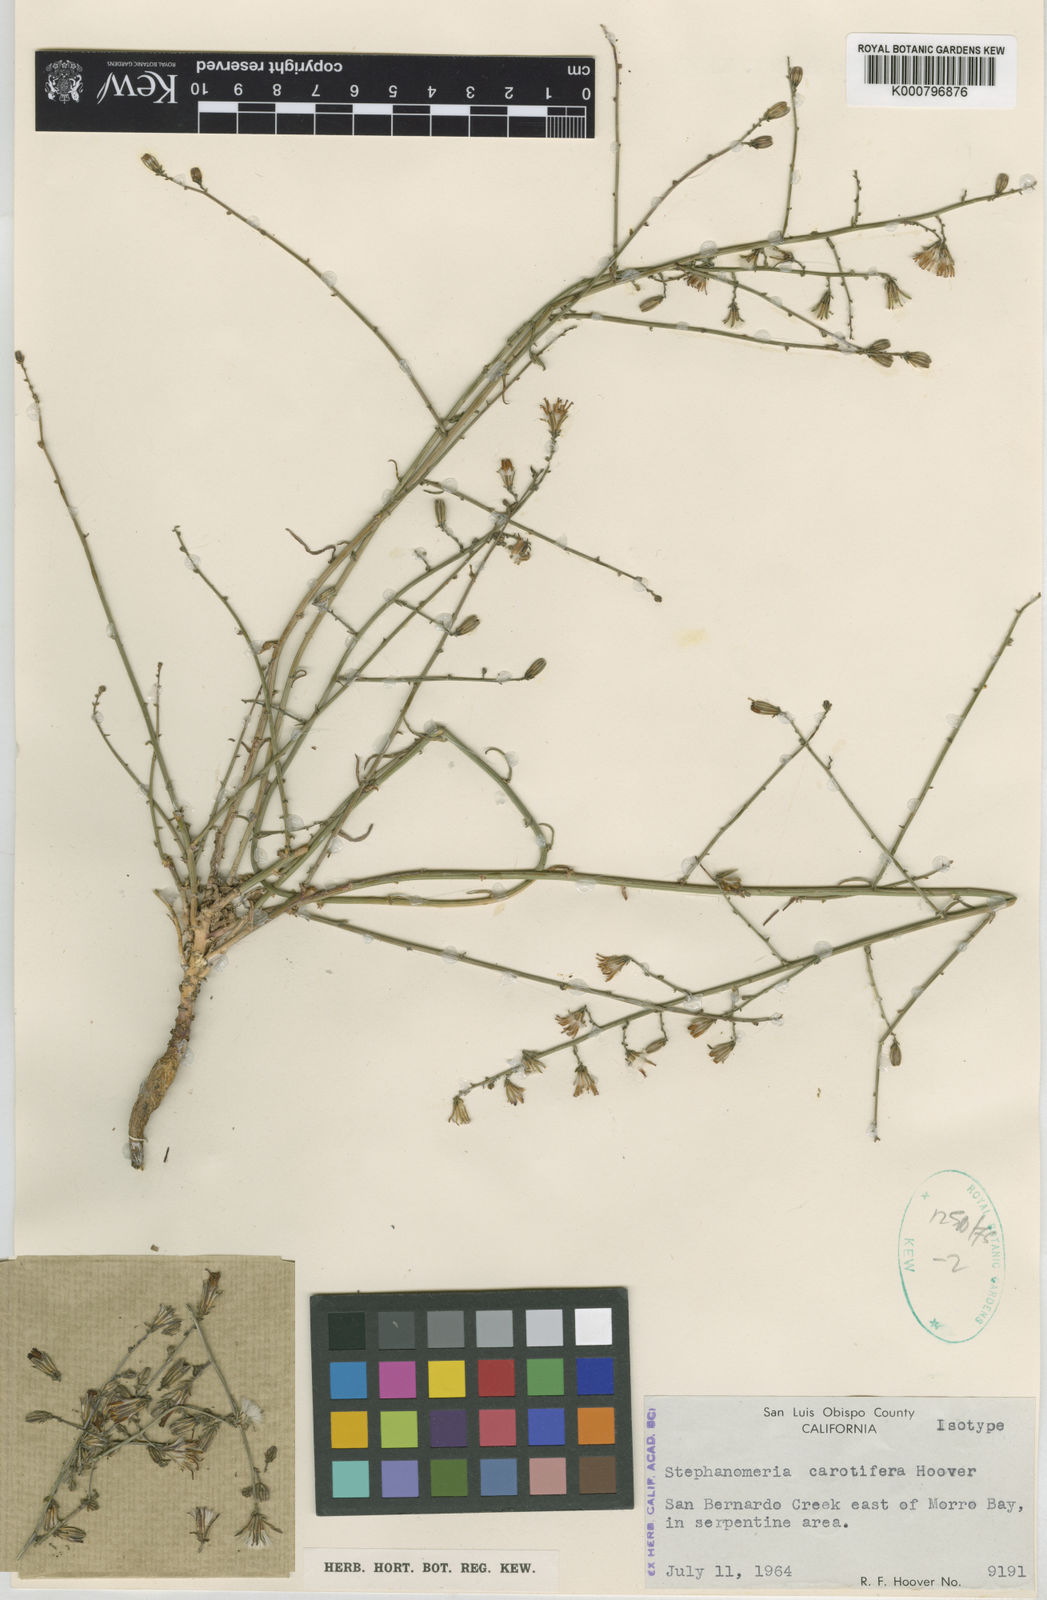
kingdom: Plantae
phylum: Tracheophyta
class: Magnoliopsida
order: Asterales
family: Asteraceae
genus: Stephanomeria
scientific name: Stephanomeria exigua
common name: Small wirelettuce
